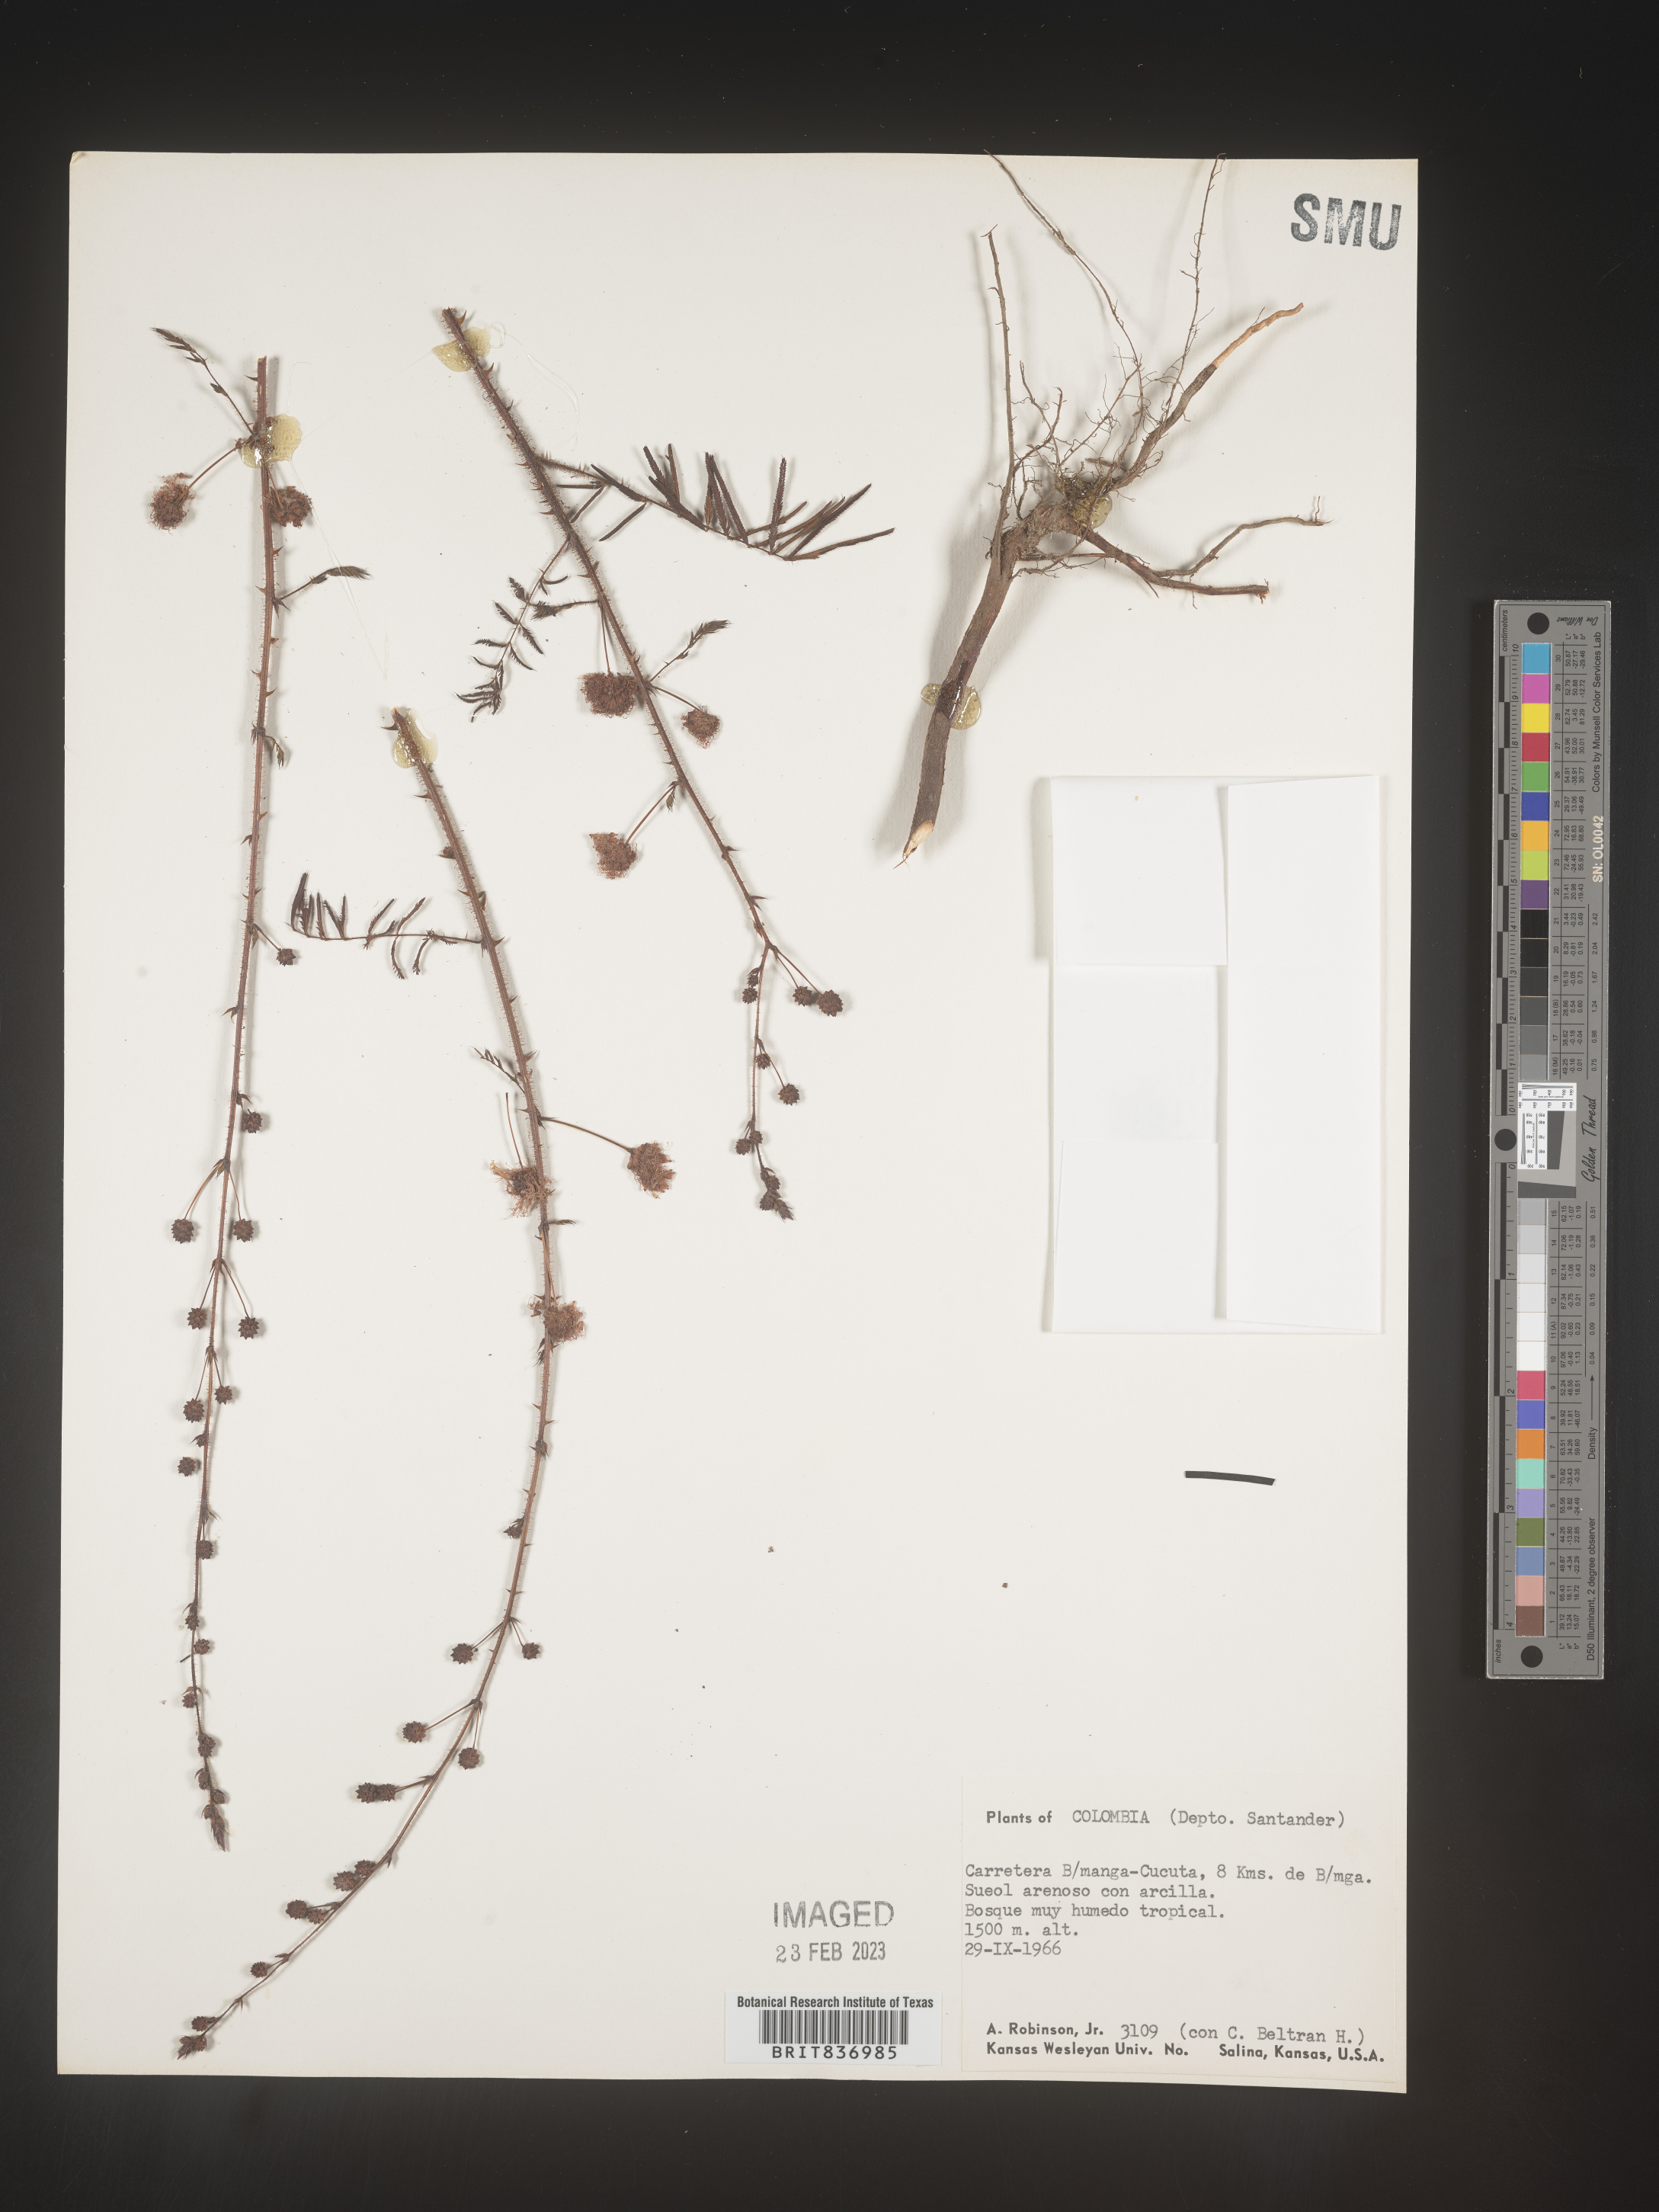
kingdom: Plantae
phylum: Tracheophyta
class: Magnoliopsida
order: Fabales
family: Fabaceae
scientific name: Fabaceae
